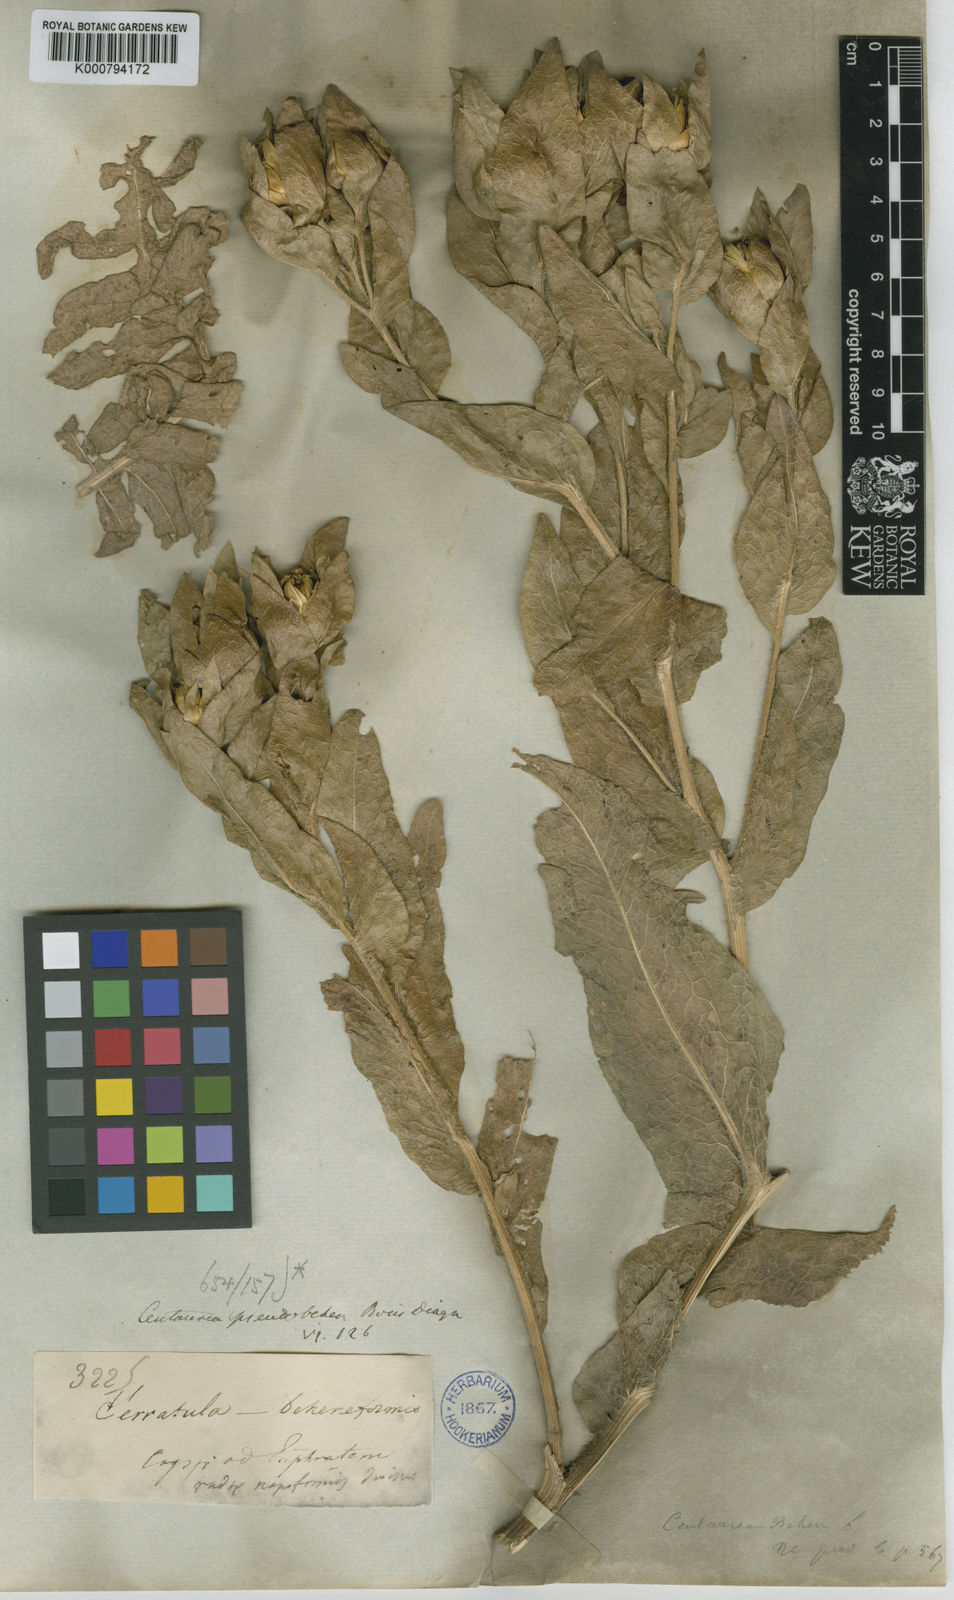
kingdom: Plantae
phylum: Tracheophyta
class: Magnoliopsida
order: Asterales
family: Asteraceae
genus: Centaurea
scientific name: Centaurea polypodiifolia
